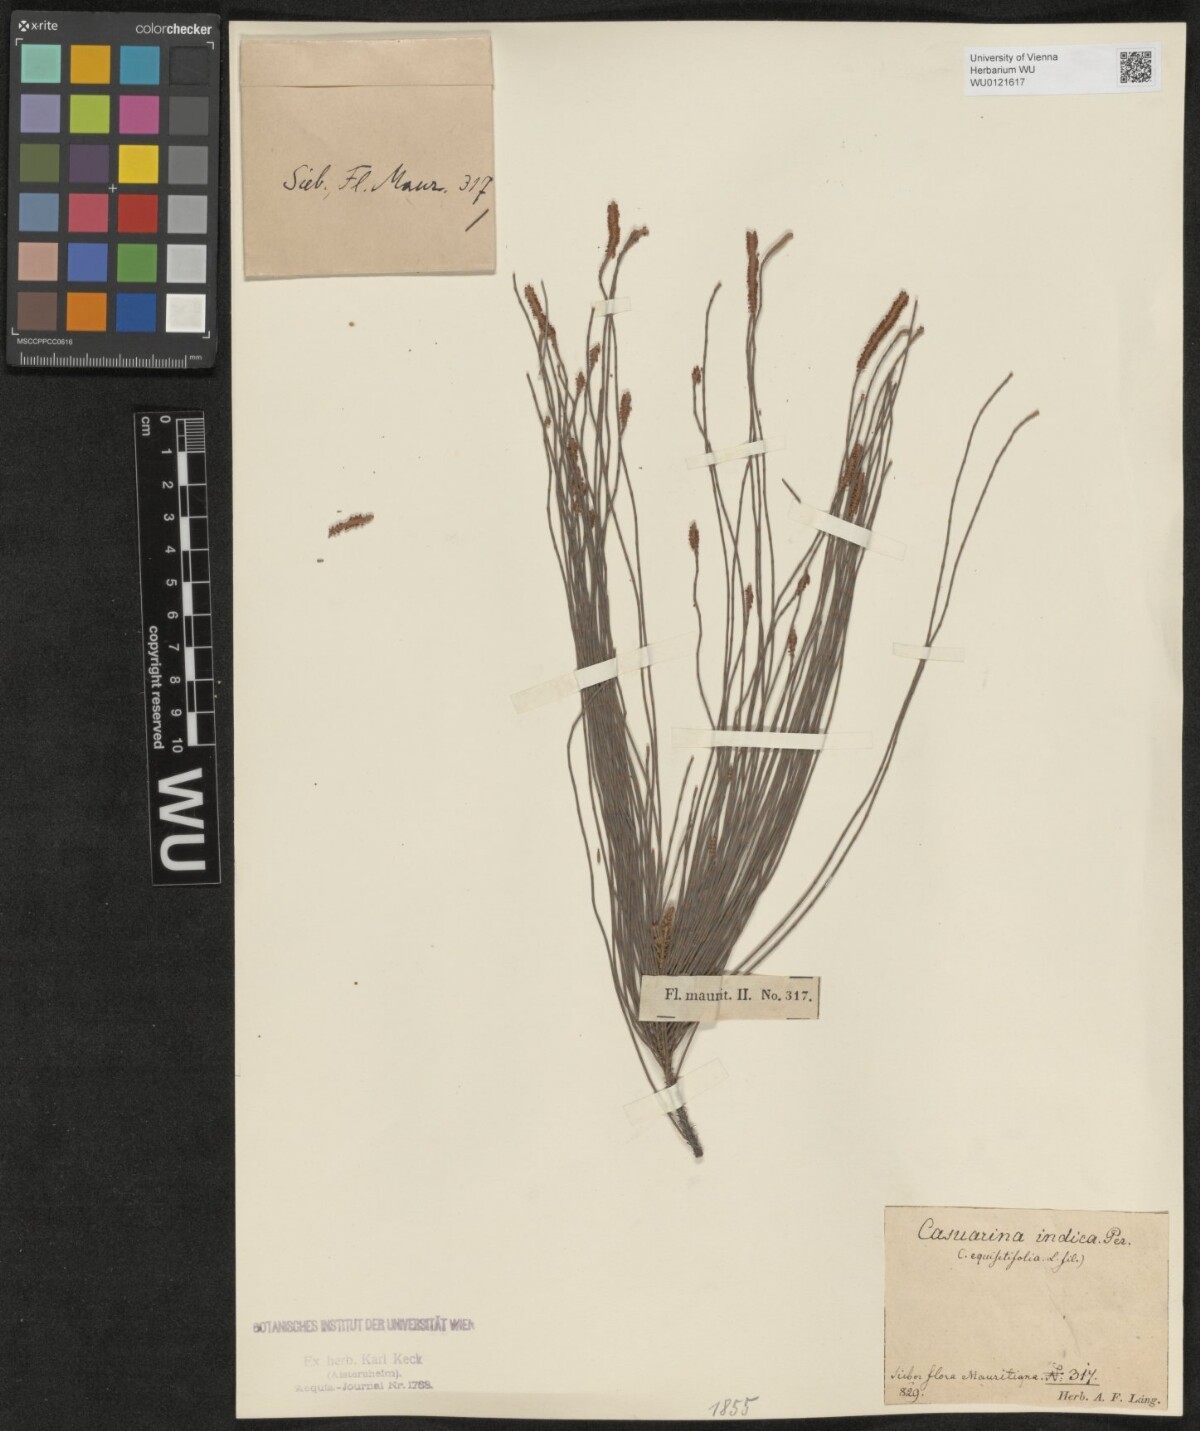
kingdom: Plantae
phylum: Tracheophyta
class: Magnoliopsida
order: Fagales
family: Casuarinaceae
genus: Casuarina
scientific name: Casuarina equisetifolia
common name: Beach sheoak
